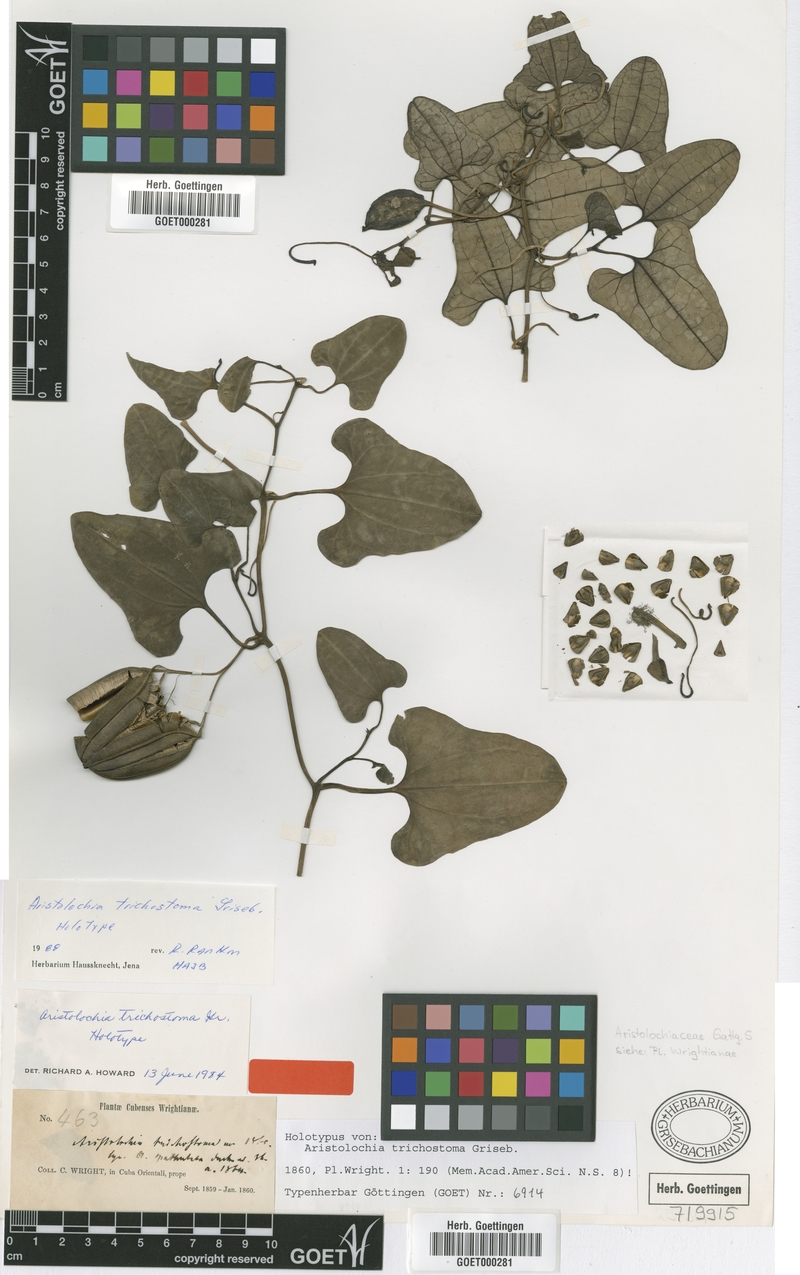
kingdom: Plantae
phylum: Tracheophyta
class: Magnoliopsida
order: Piperales
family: Aristolochiaceae
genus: Aristolochia
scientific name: Aristolochia trichostoma
